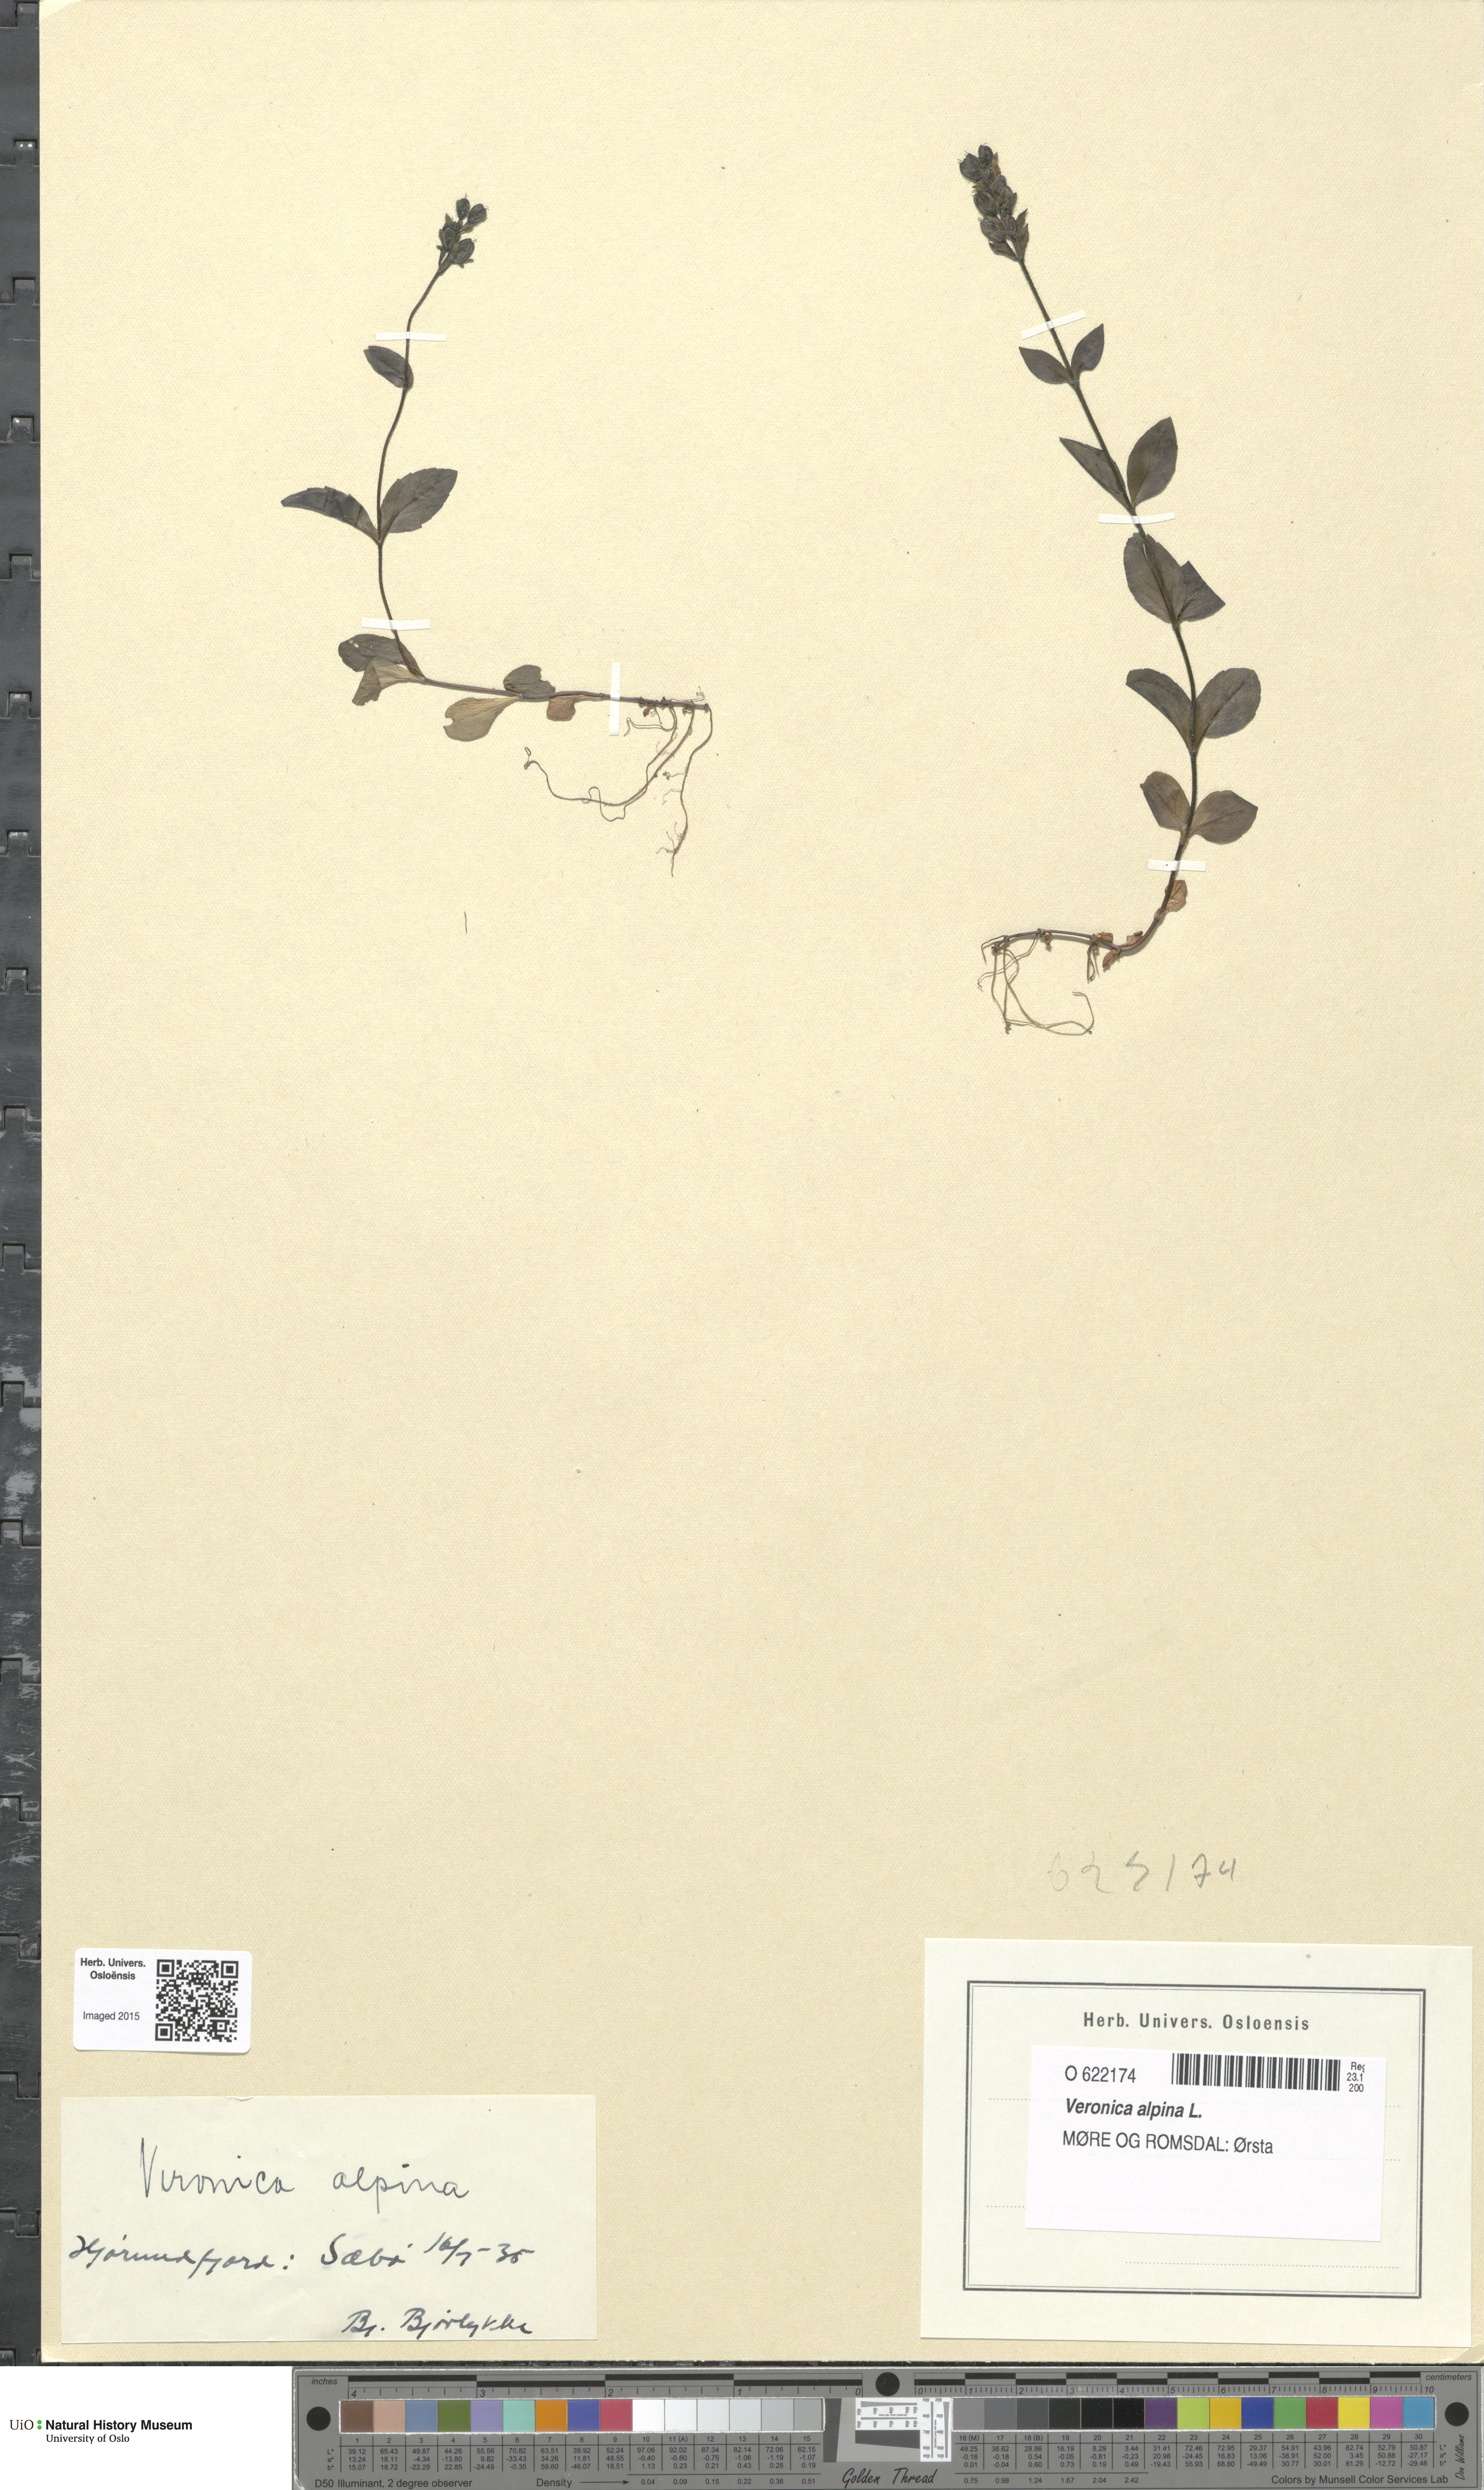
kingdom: Plantae
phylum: Tracheophyta
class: Magnoliopsida
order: Lamiales
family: Plantaginaceae
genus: Veronica
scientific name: Veronica alpina
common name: Alpine speedwell
